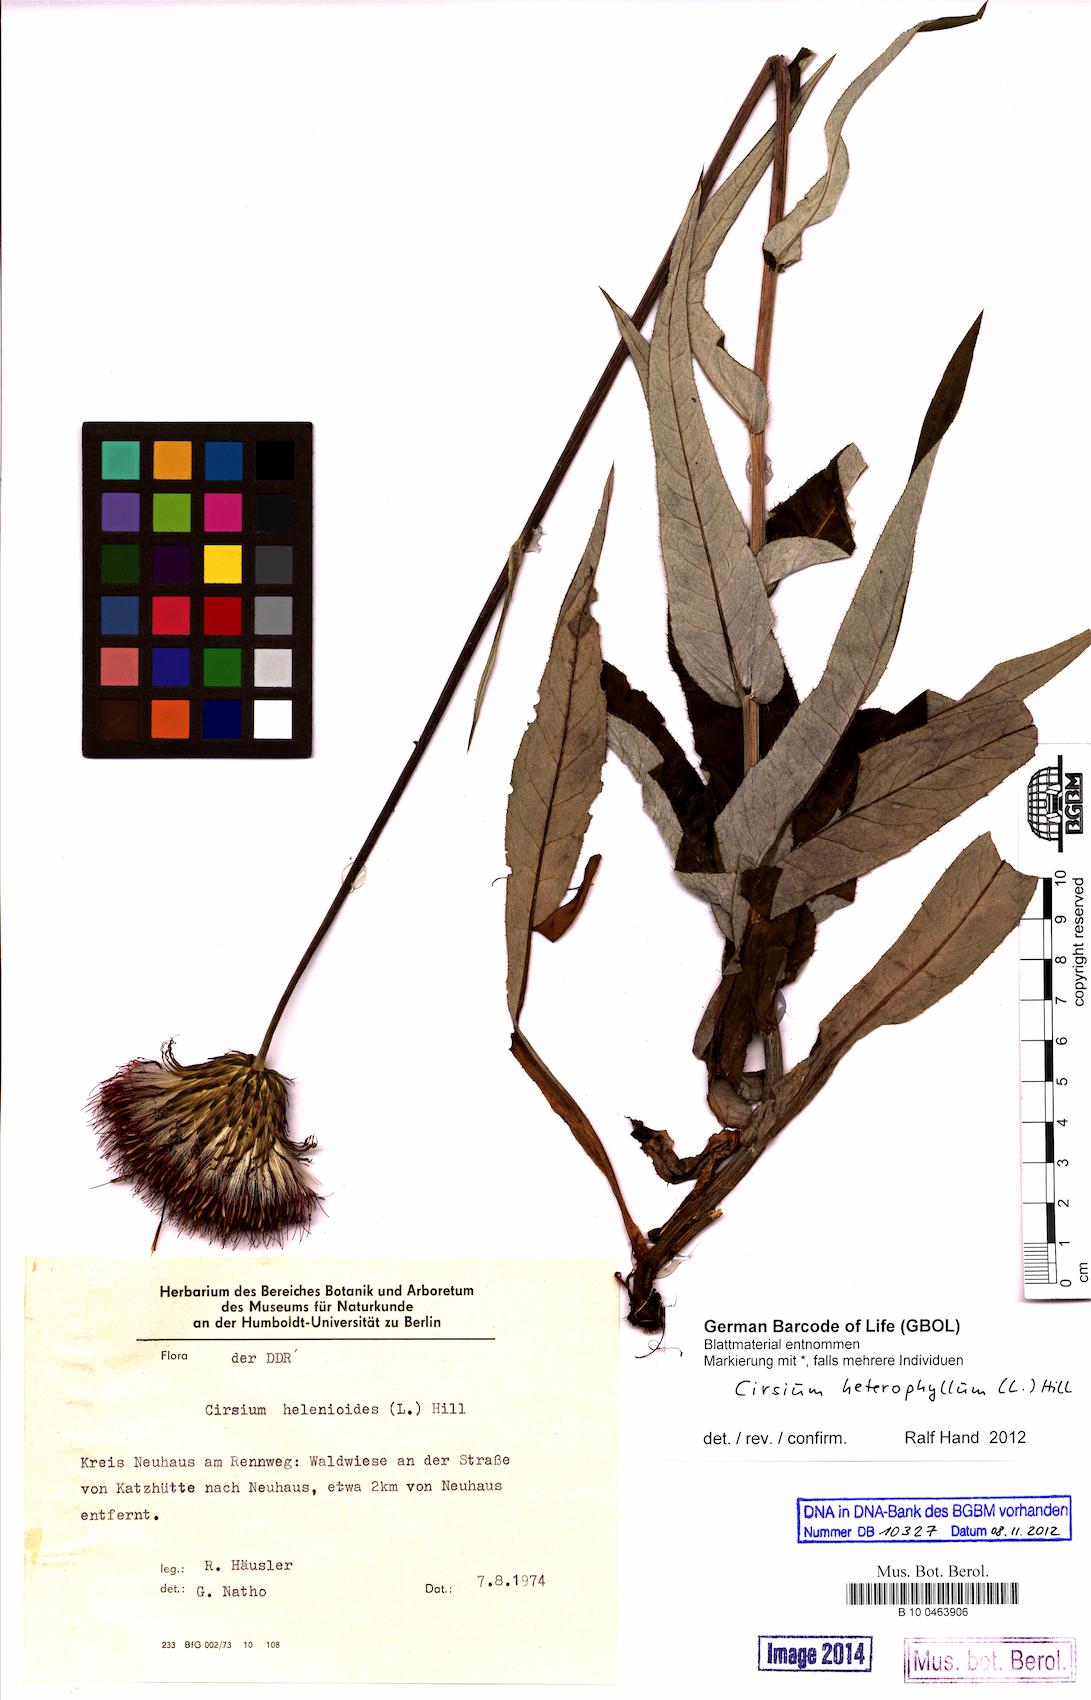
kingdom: Plantae
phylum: Tracheophyta
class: Magnoliopsida
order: Asterales
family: Asteraceae
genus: Cirsium
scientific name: Cirsium heterophyllum
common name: Melancholy thistle
